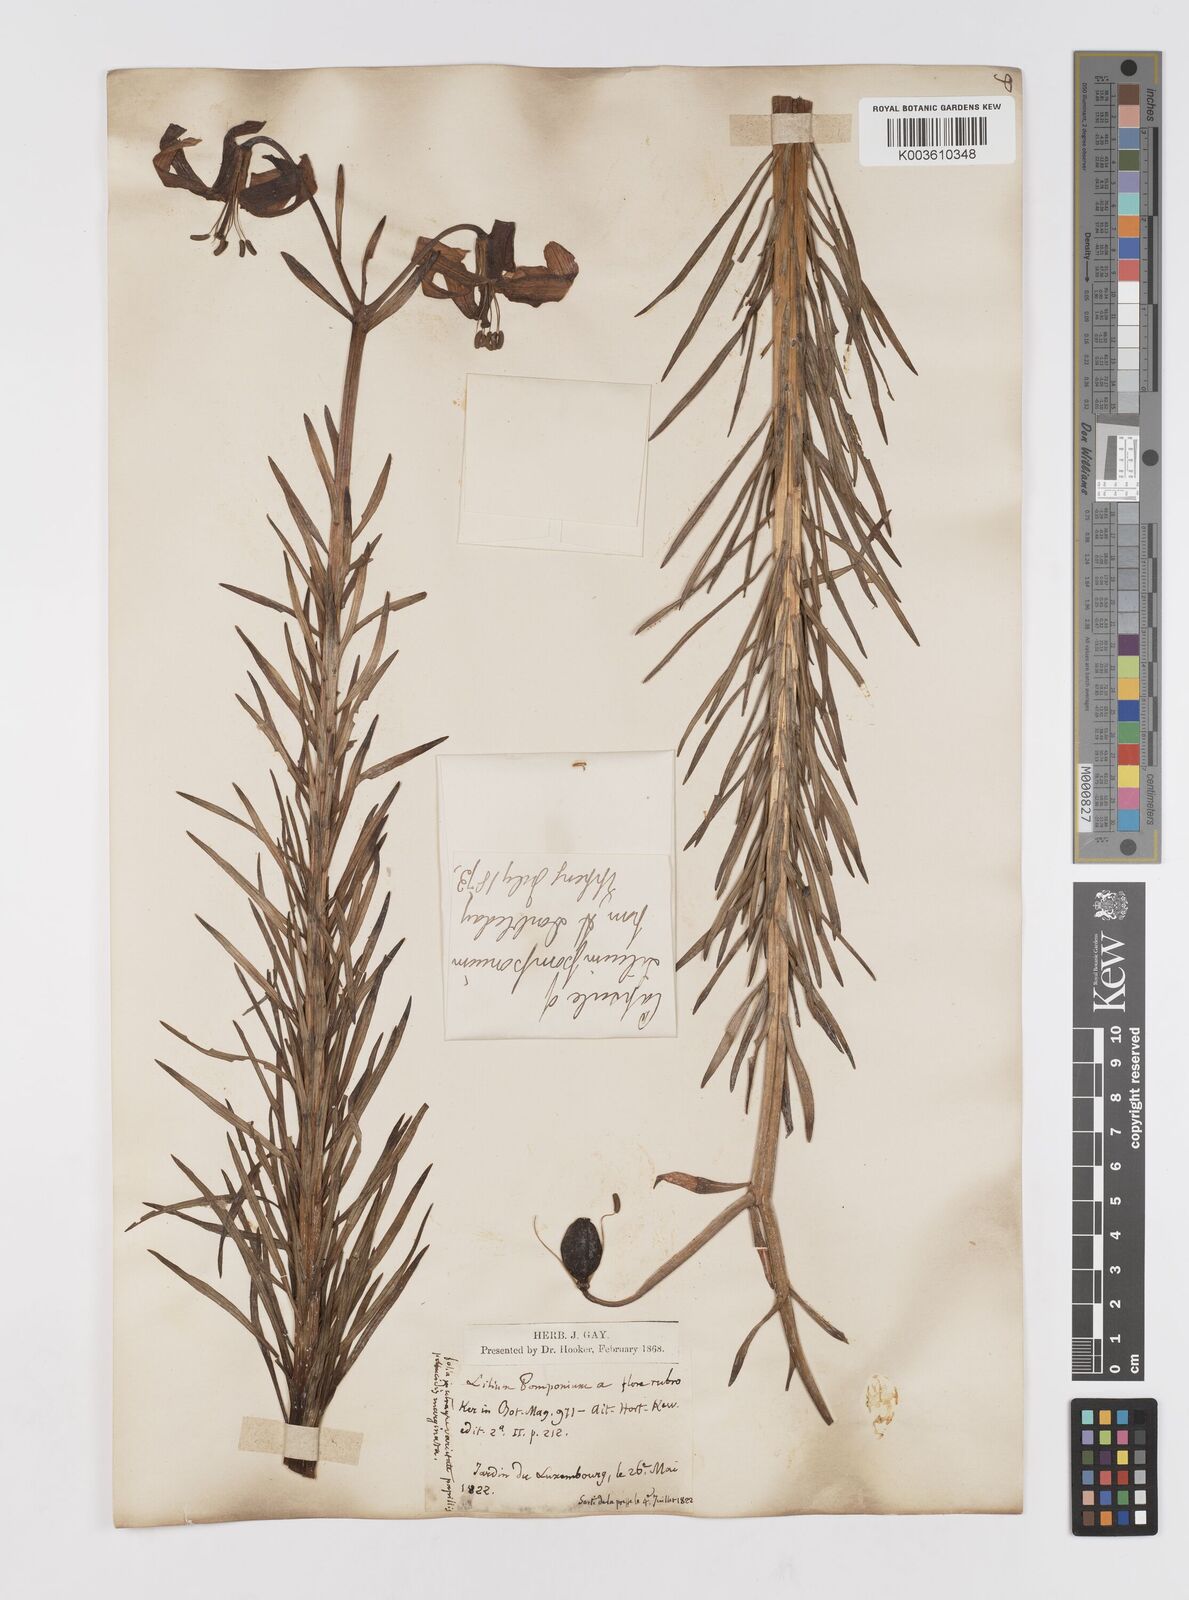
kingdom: Plantae
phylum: Tracheophyta
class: Liliopsida
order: Liliales
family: Liliaceae
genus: Lilium
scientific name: Lilium
